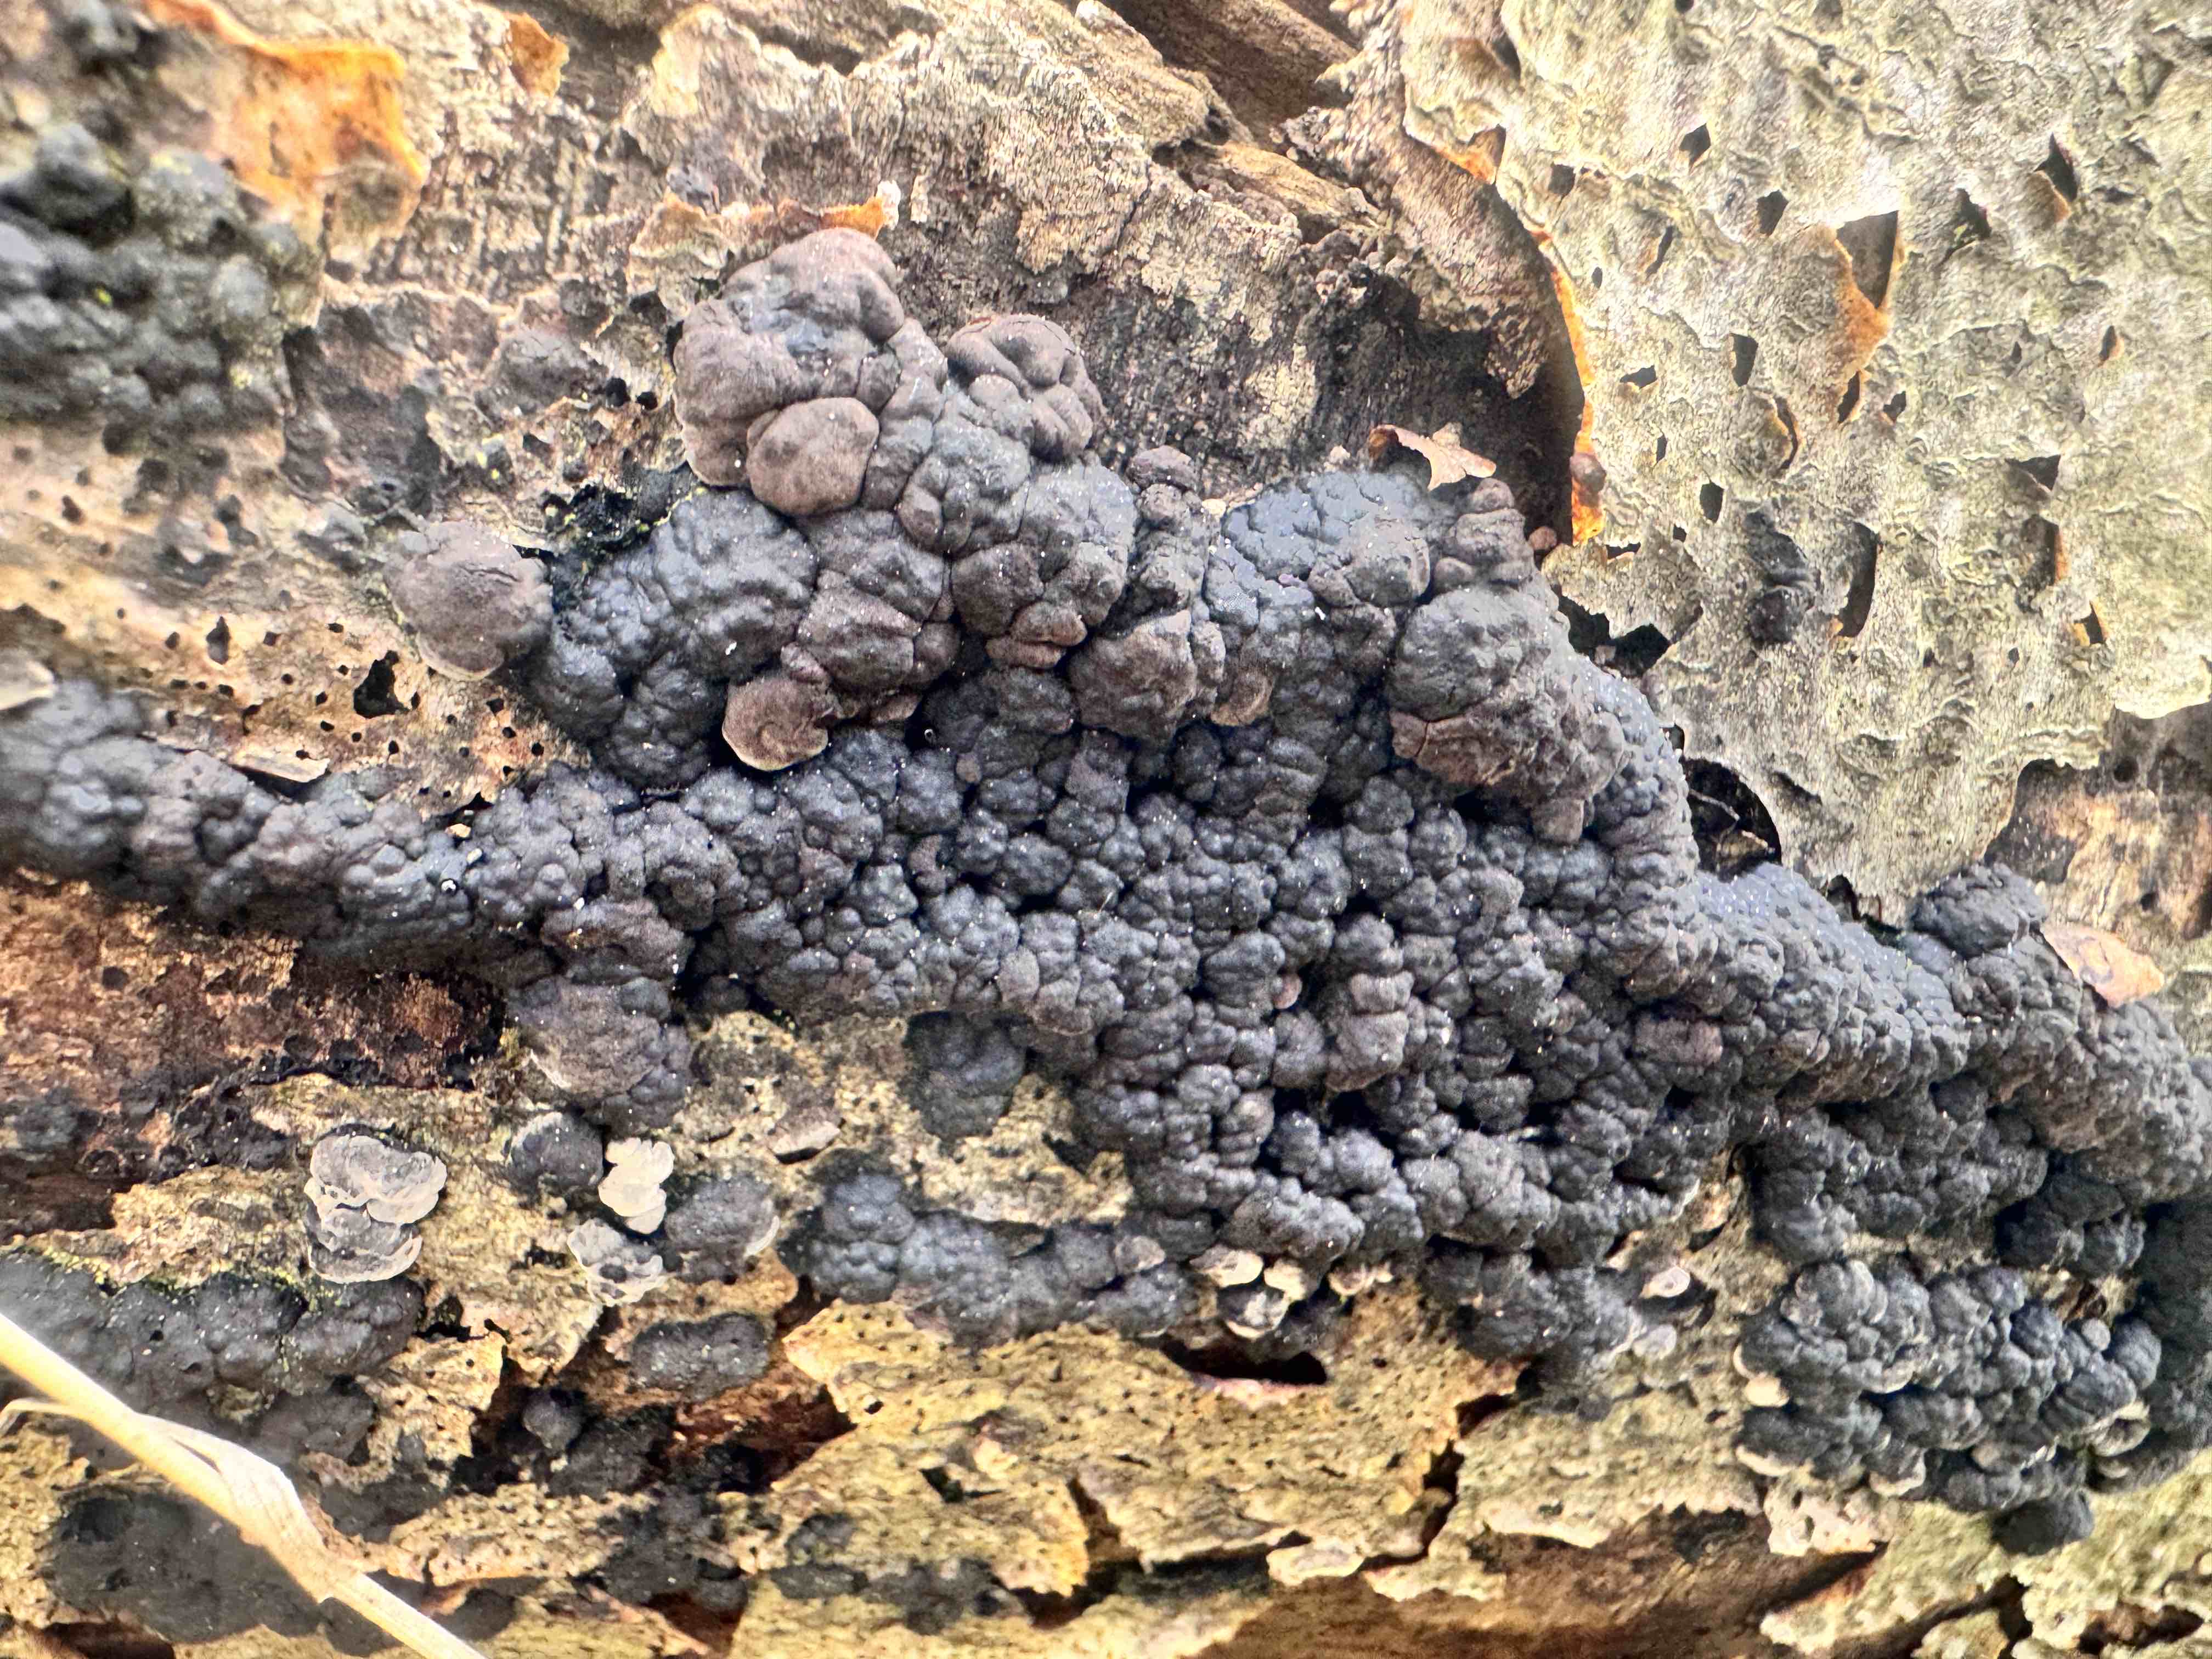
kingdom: Fungi
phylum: Ascomycota
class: Sordariomycetes
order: Xylariales
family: Hypoxylaceae
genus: Jackrogersella
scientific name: Jackrogersella cohaerens
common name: sammenflydende kulbær
